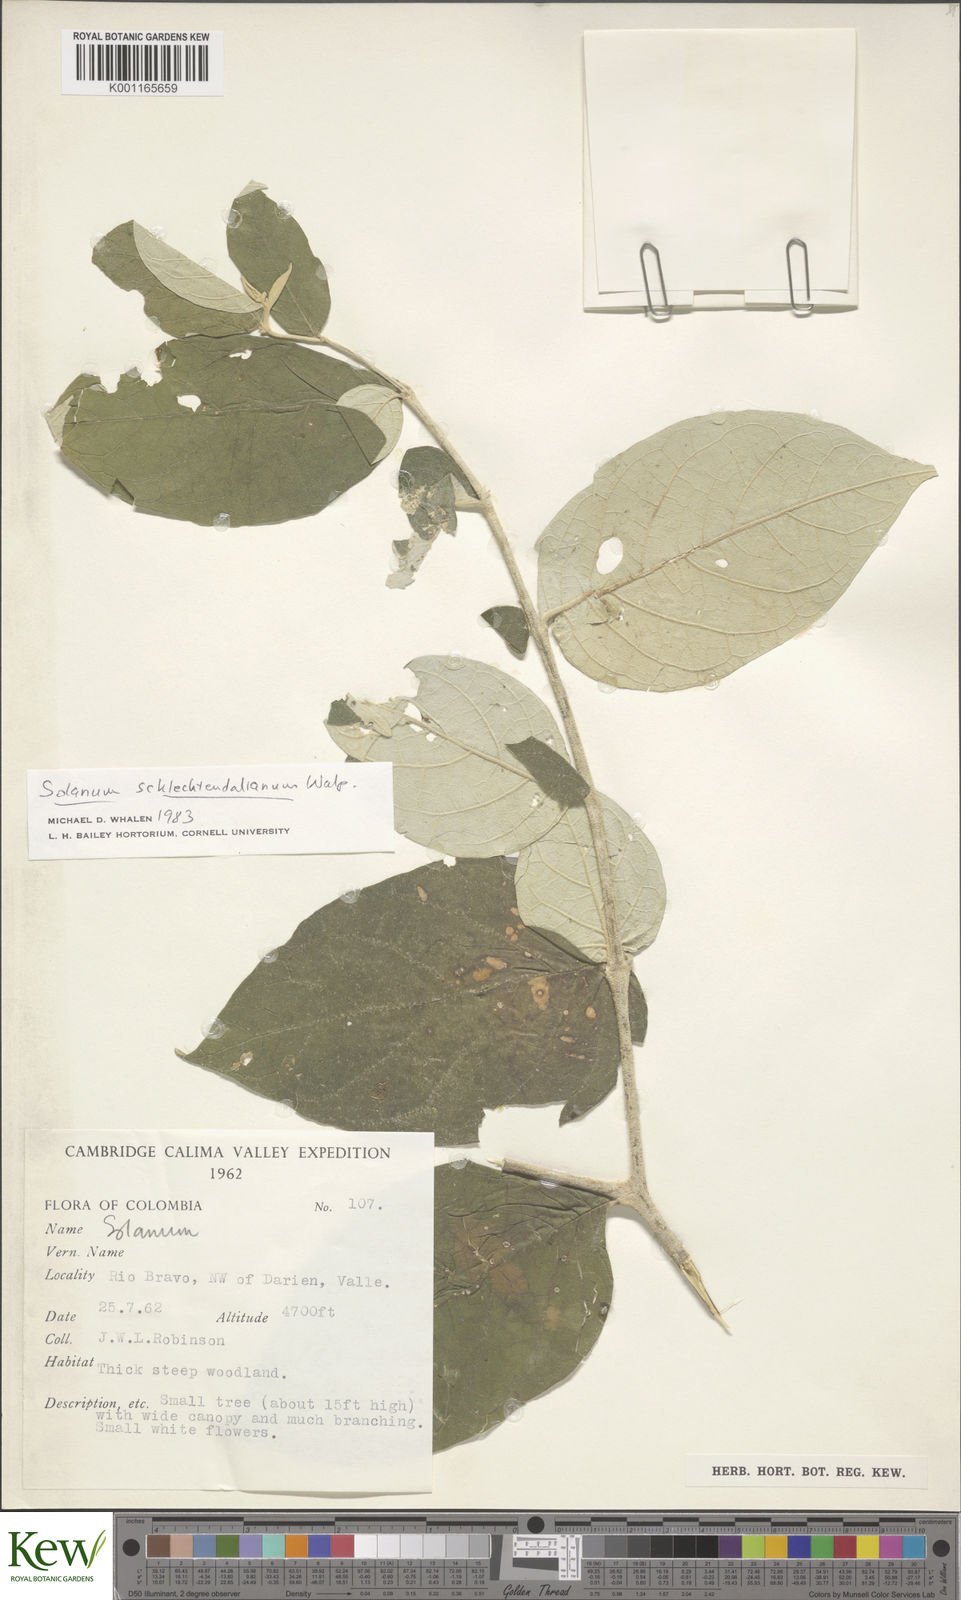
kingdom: Plantae
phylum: Tracheophyta
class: Magnoliopsida
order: Solanales
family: Solanaceae
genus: Solanum
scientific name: Solanum schlechtendalianum
